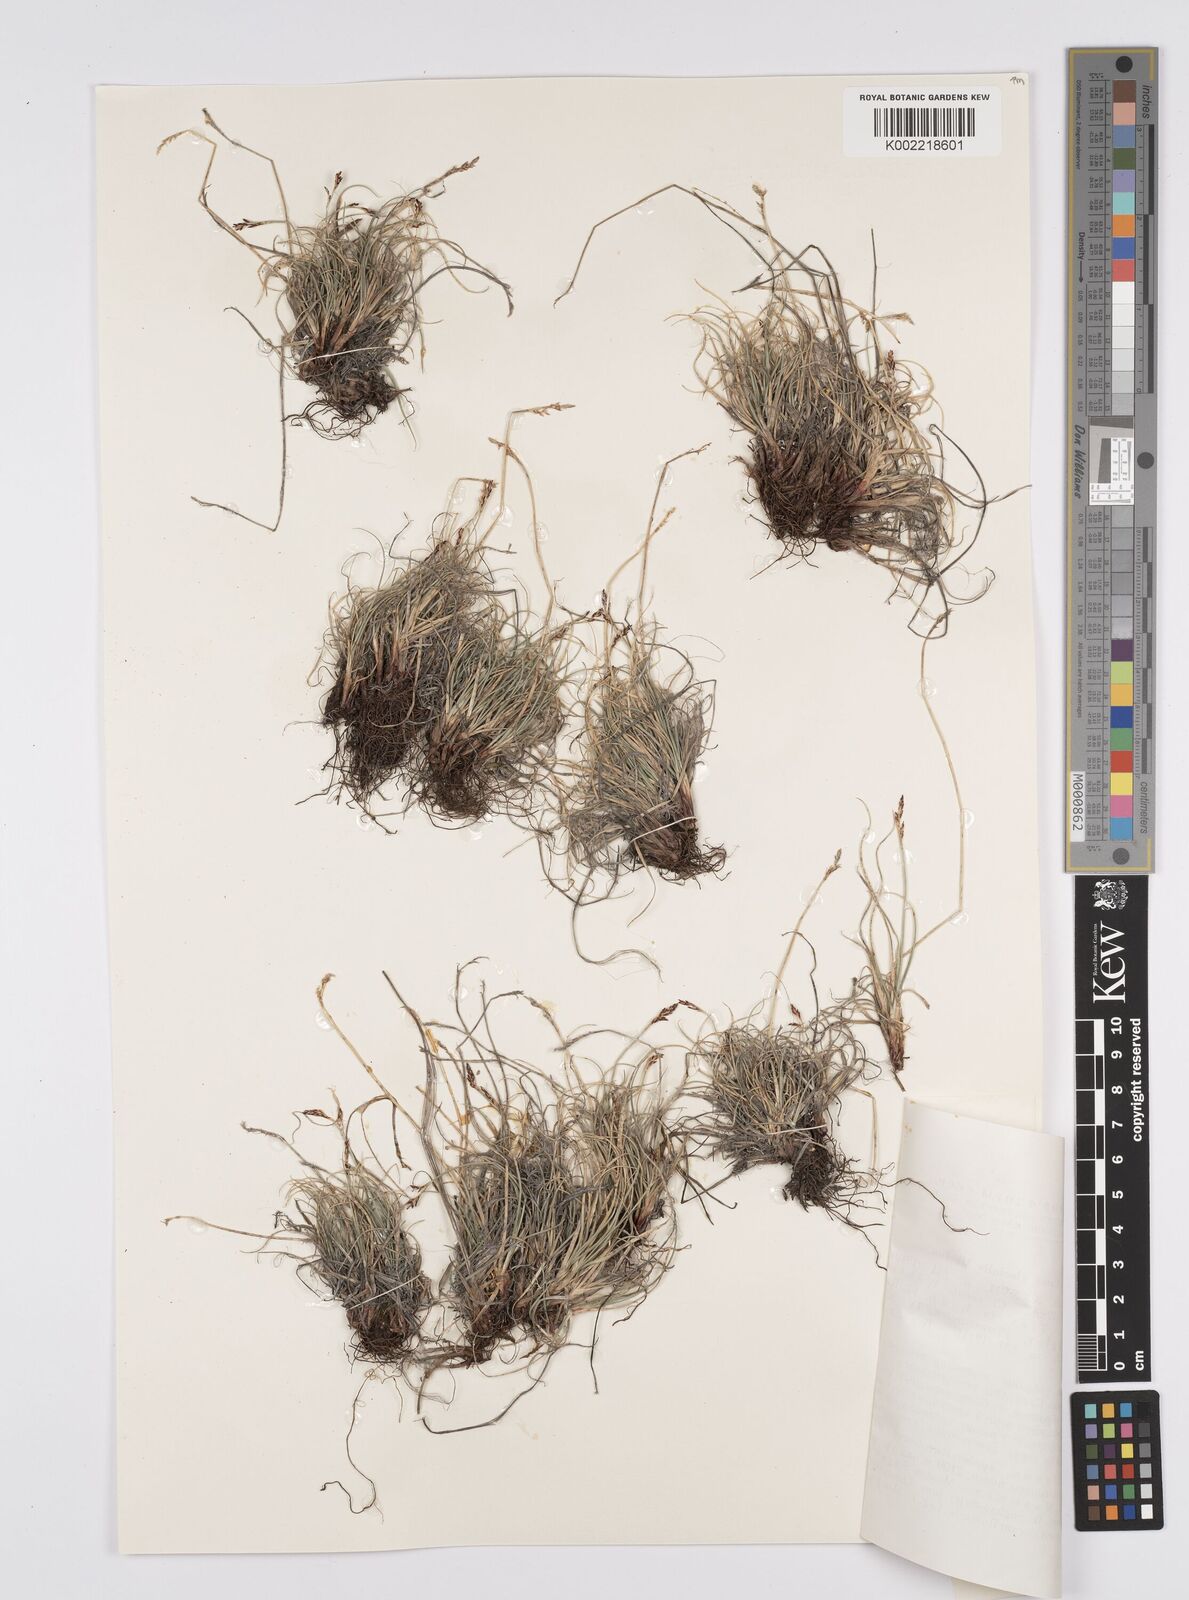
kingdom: Plantae
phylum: Tracheophyta
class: Liliopsida
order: Poales
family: Cyperaceae
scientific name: Cyperaceae
